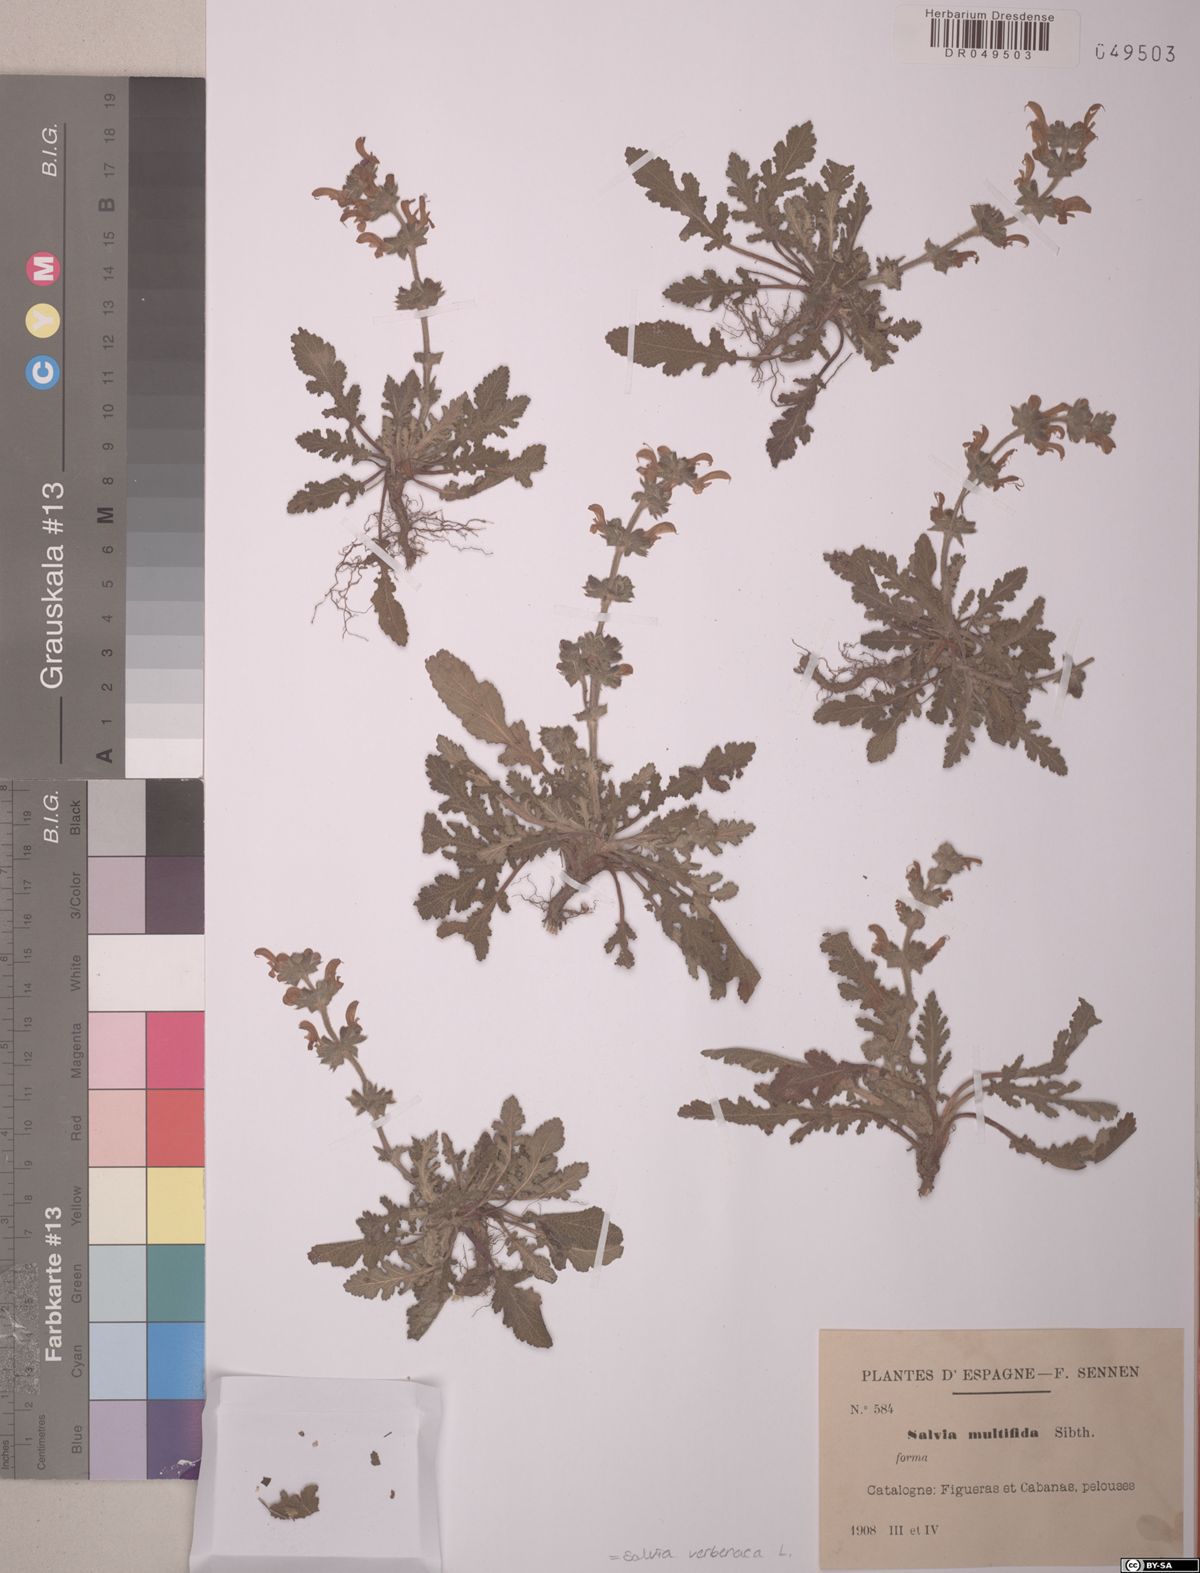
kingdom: Plantae
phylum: Tracheophyta
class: Magnoliopsida
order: Lamiales
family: Lamiaceae
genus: Salvia
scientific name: Salvia verbenaca
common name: Wild clary
